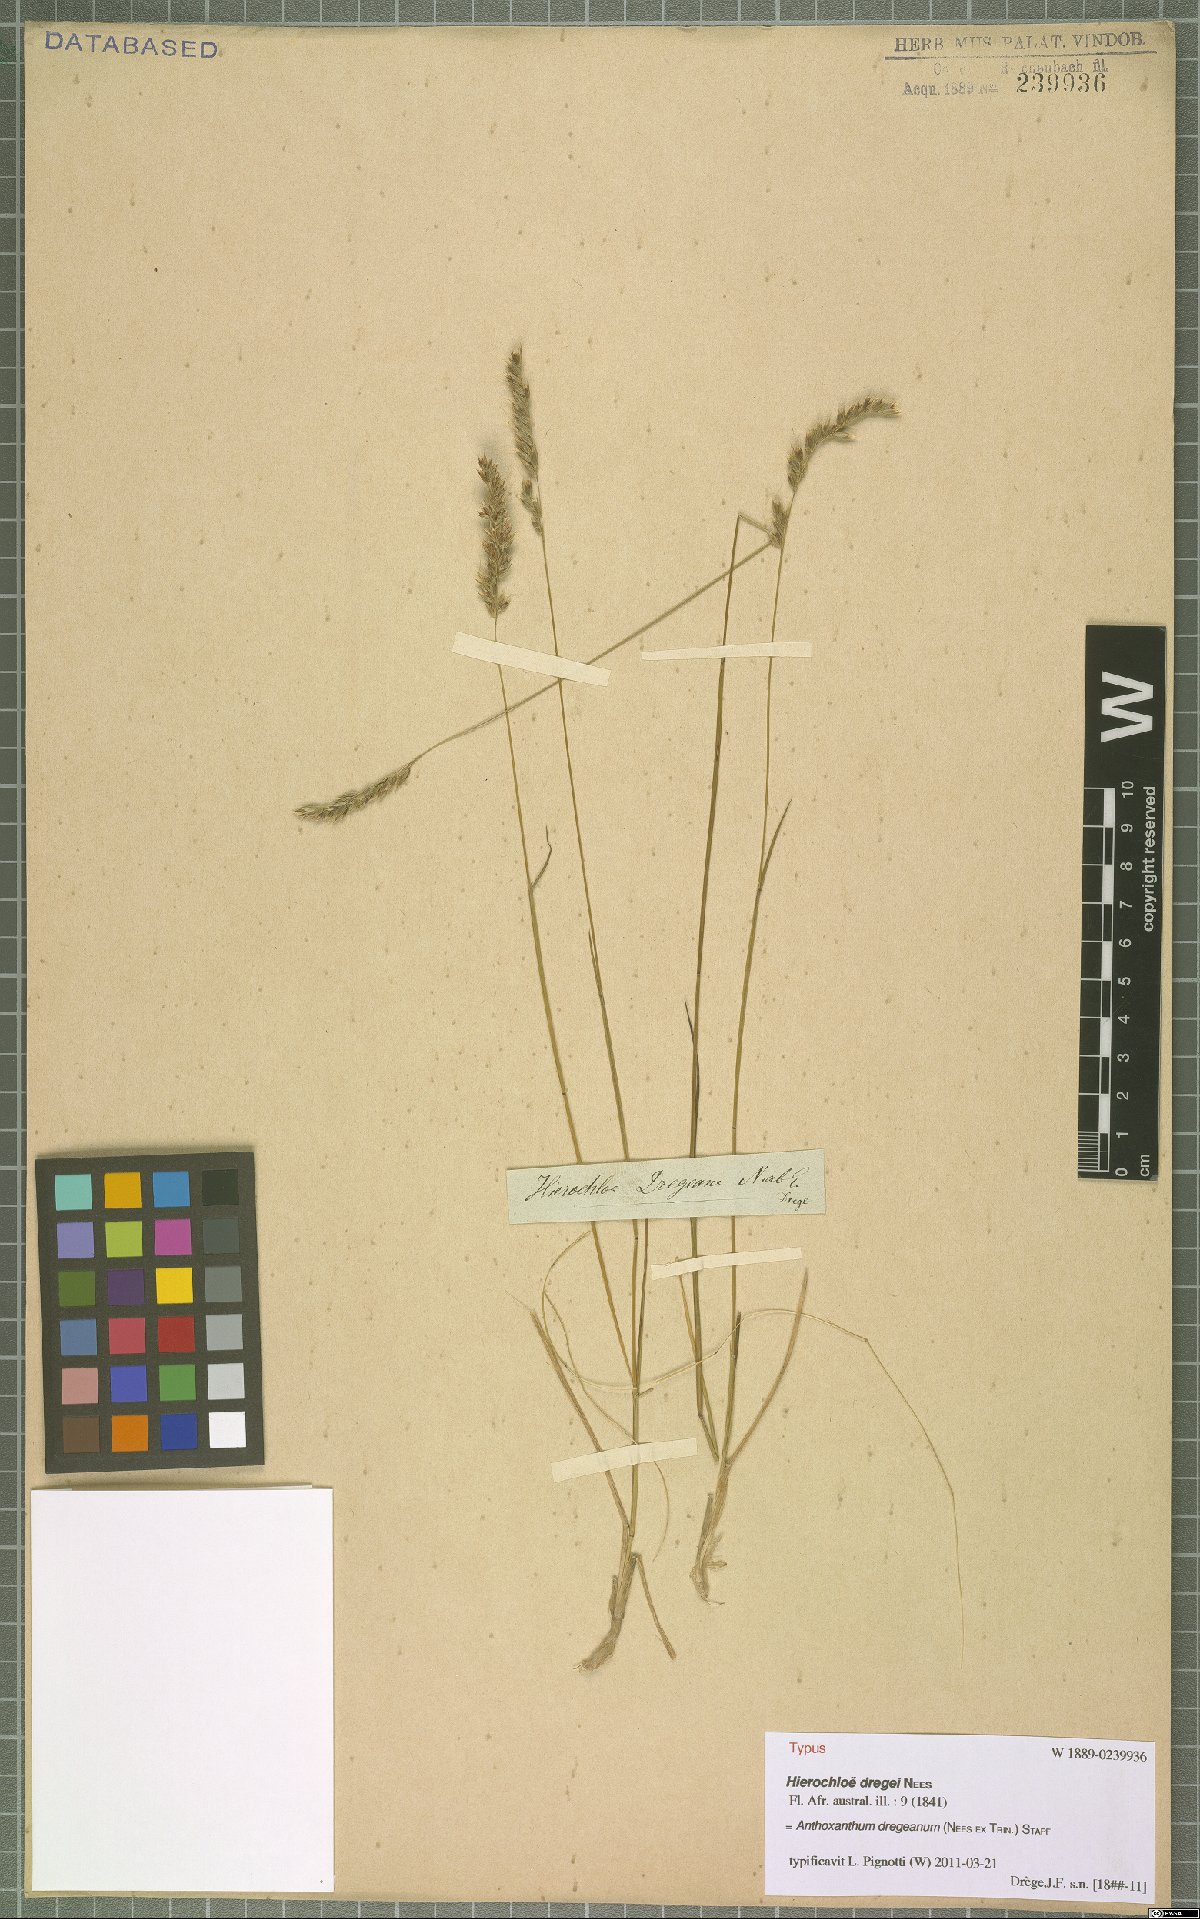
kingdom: Plantae
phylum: Tracheophyta
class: Liliopsida
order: Poales
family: Poaceae
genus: Anthoxanthum
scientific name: Anthoxanthum dregeanum
